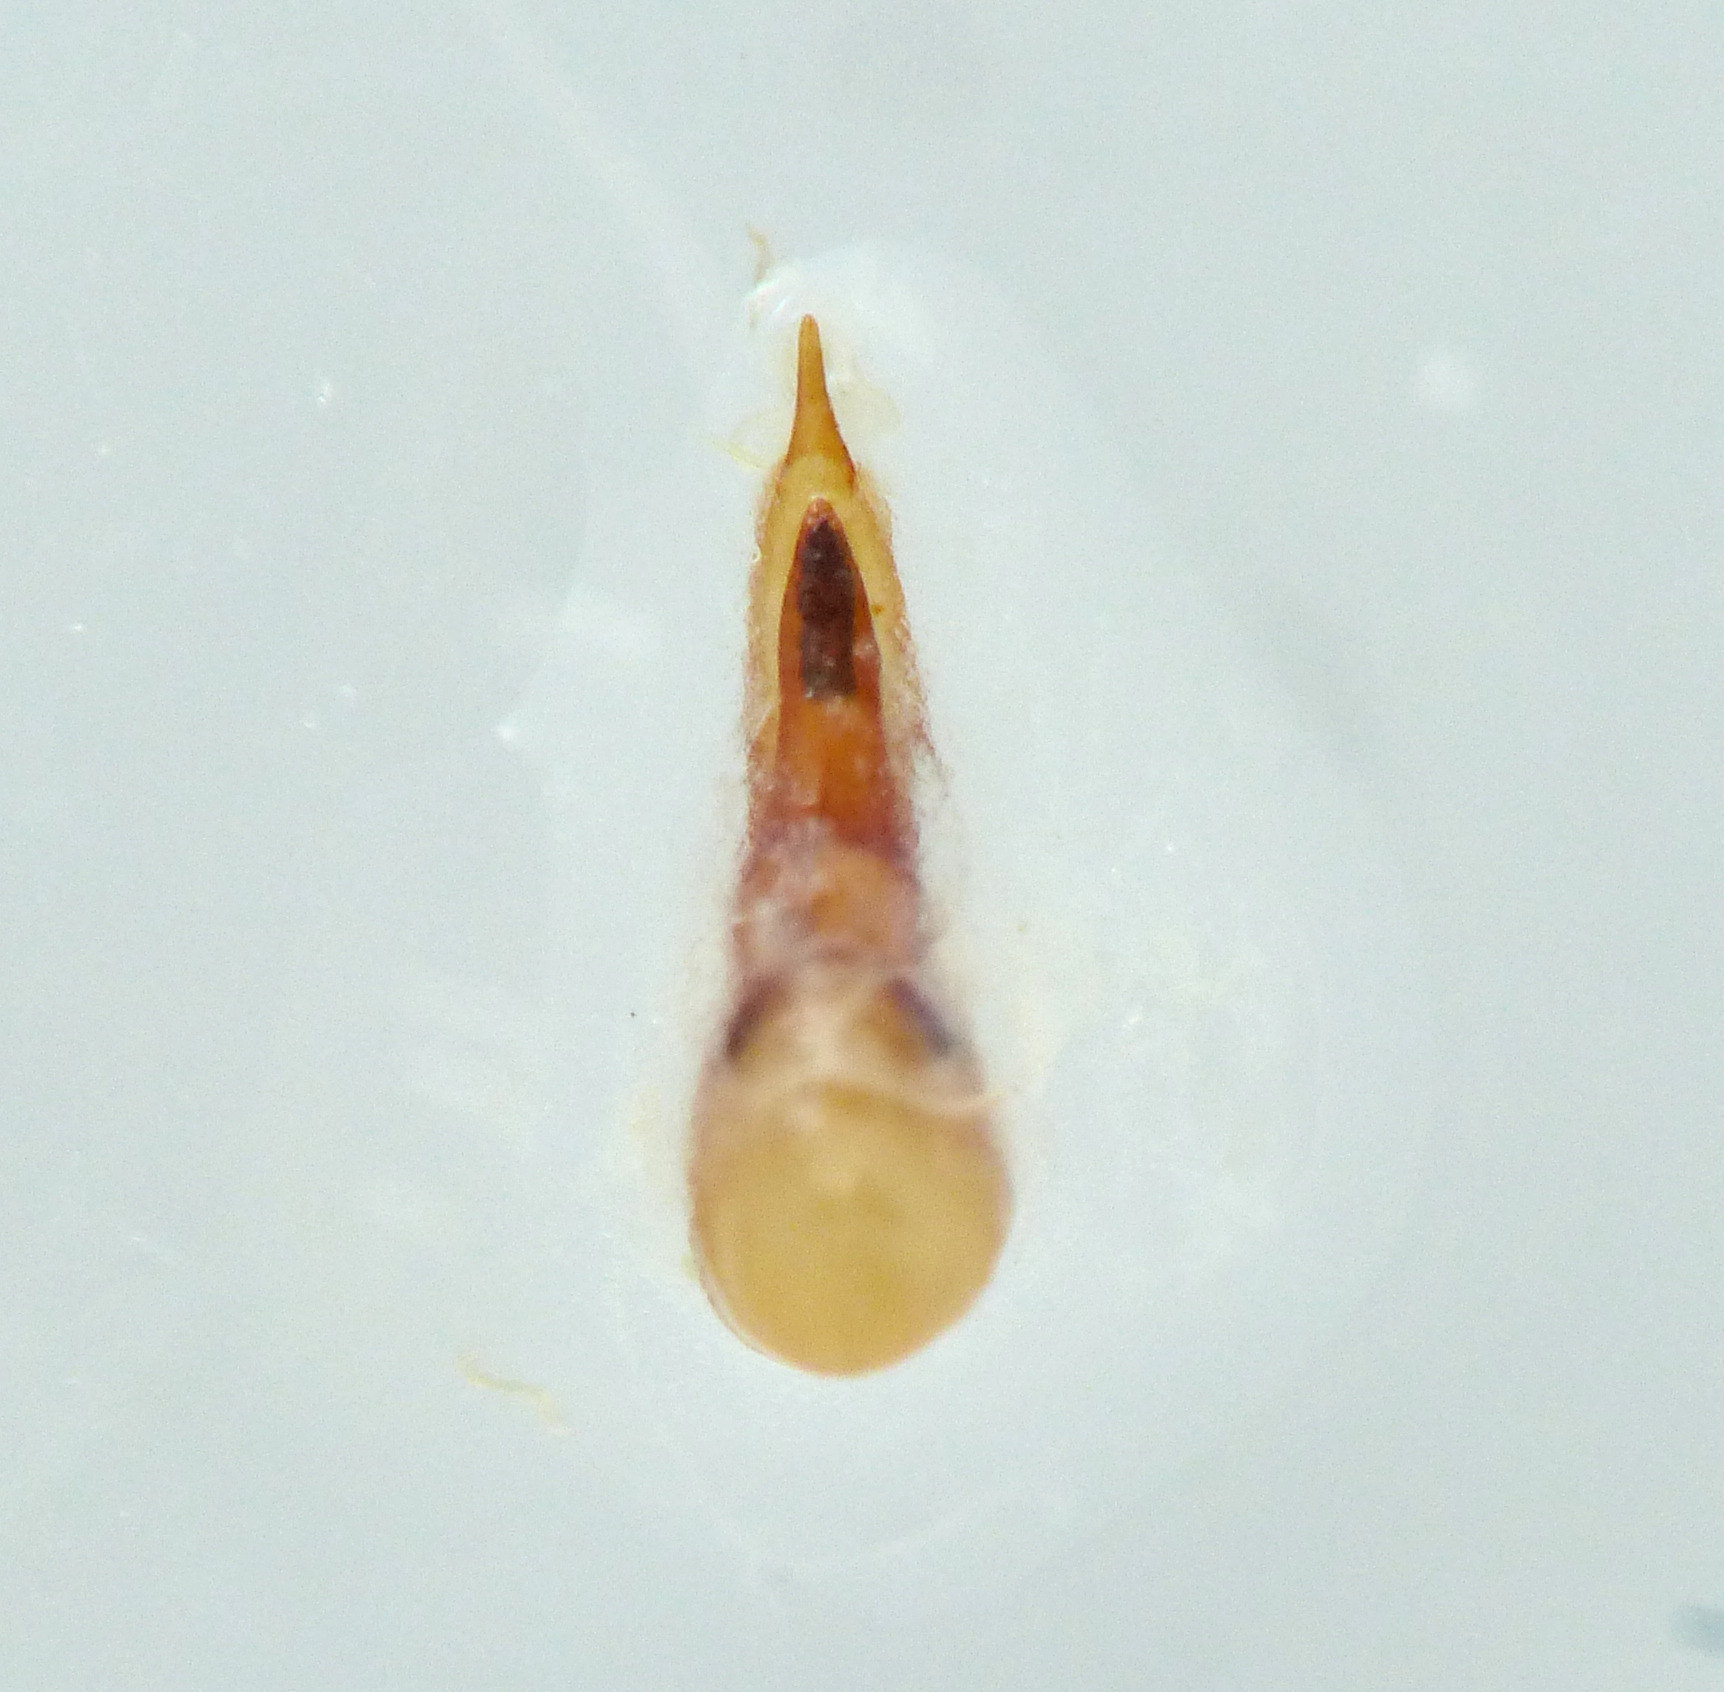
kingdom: Animalia
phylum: Arthropoda
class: Insecta
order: Coleoptera
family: Staphylinidae
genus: Philonthus
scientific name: Philonthus politus
